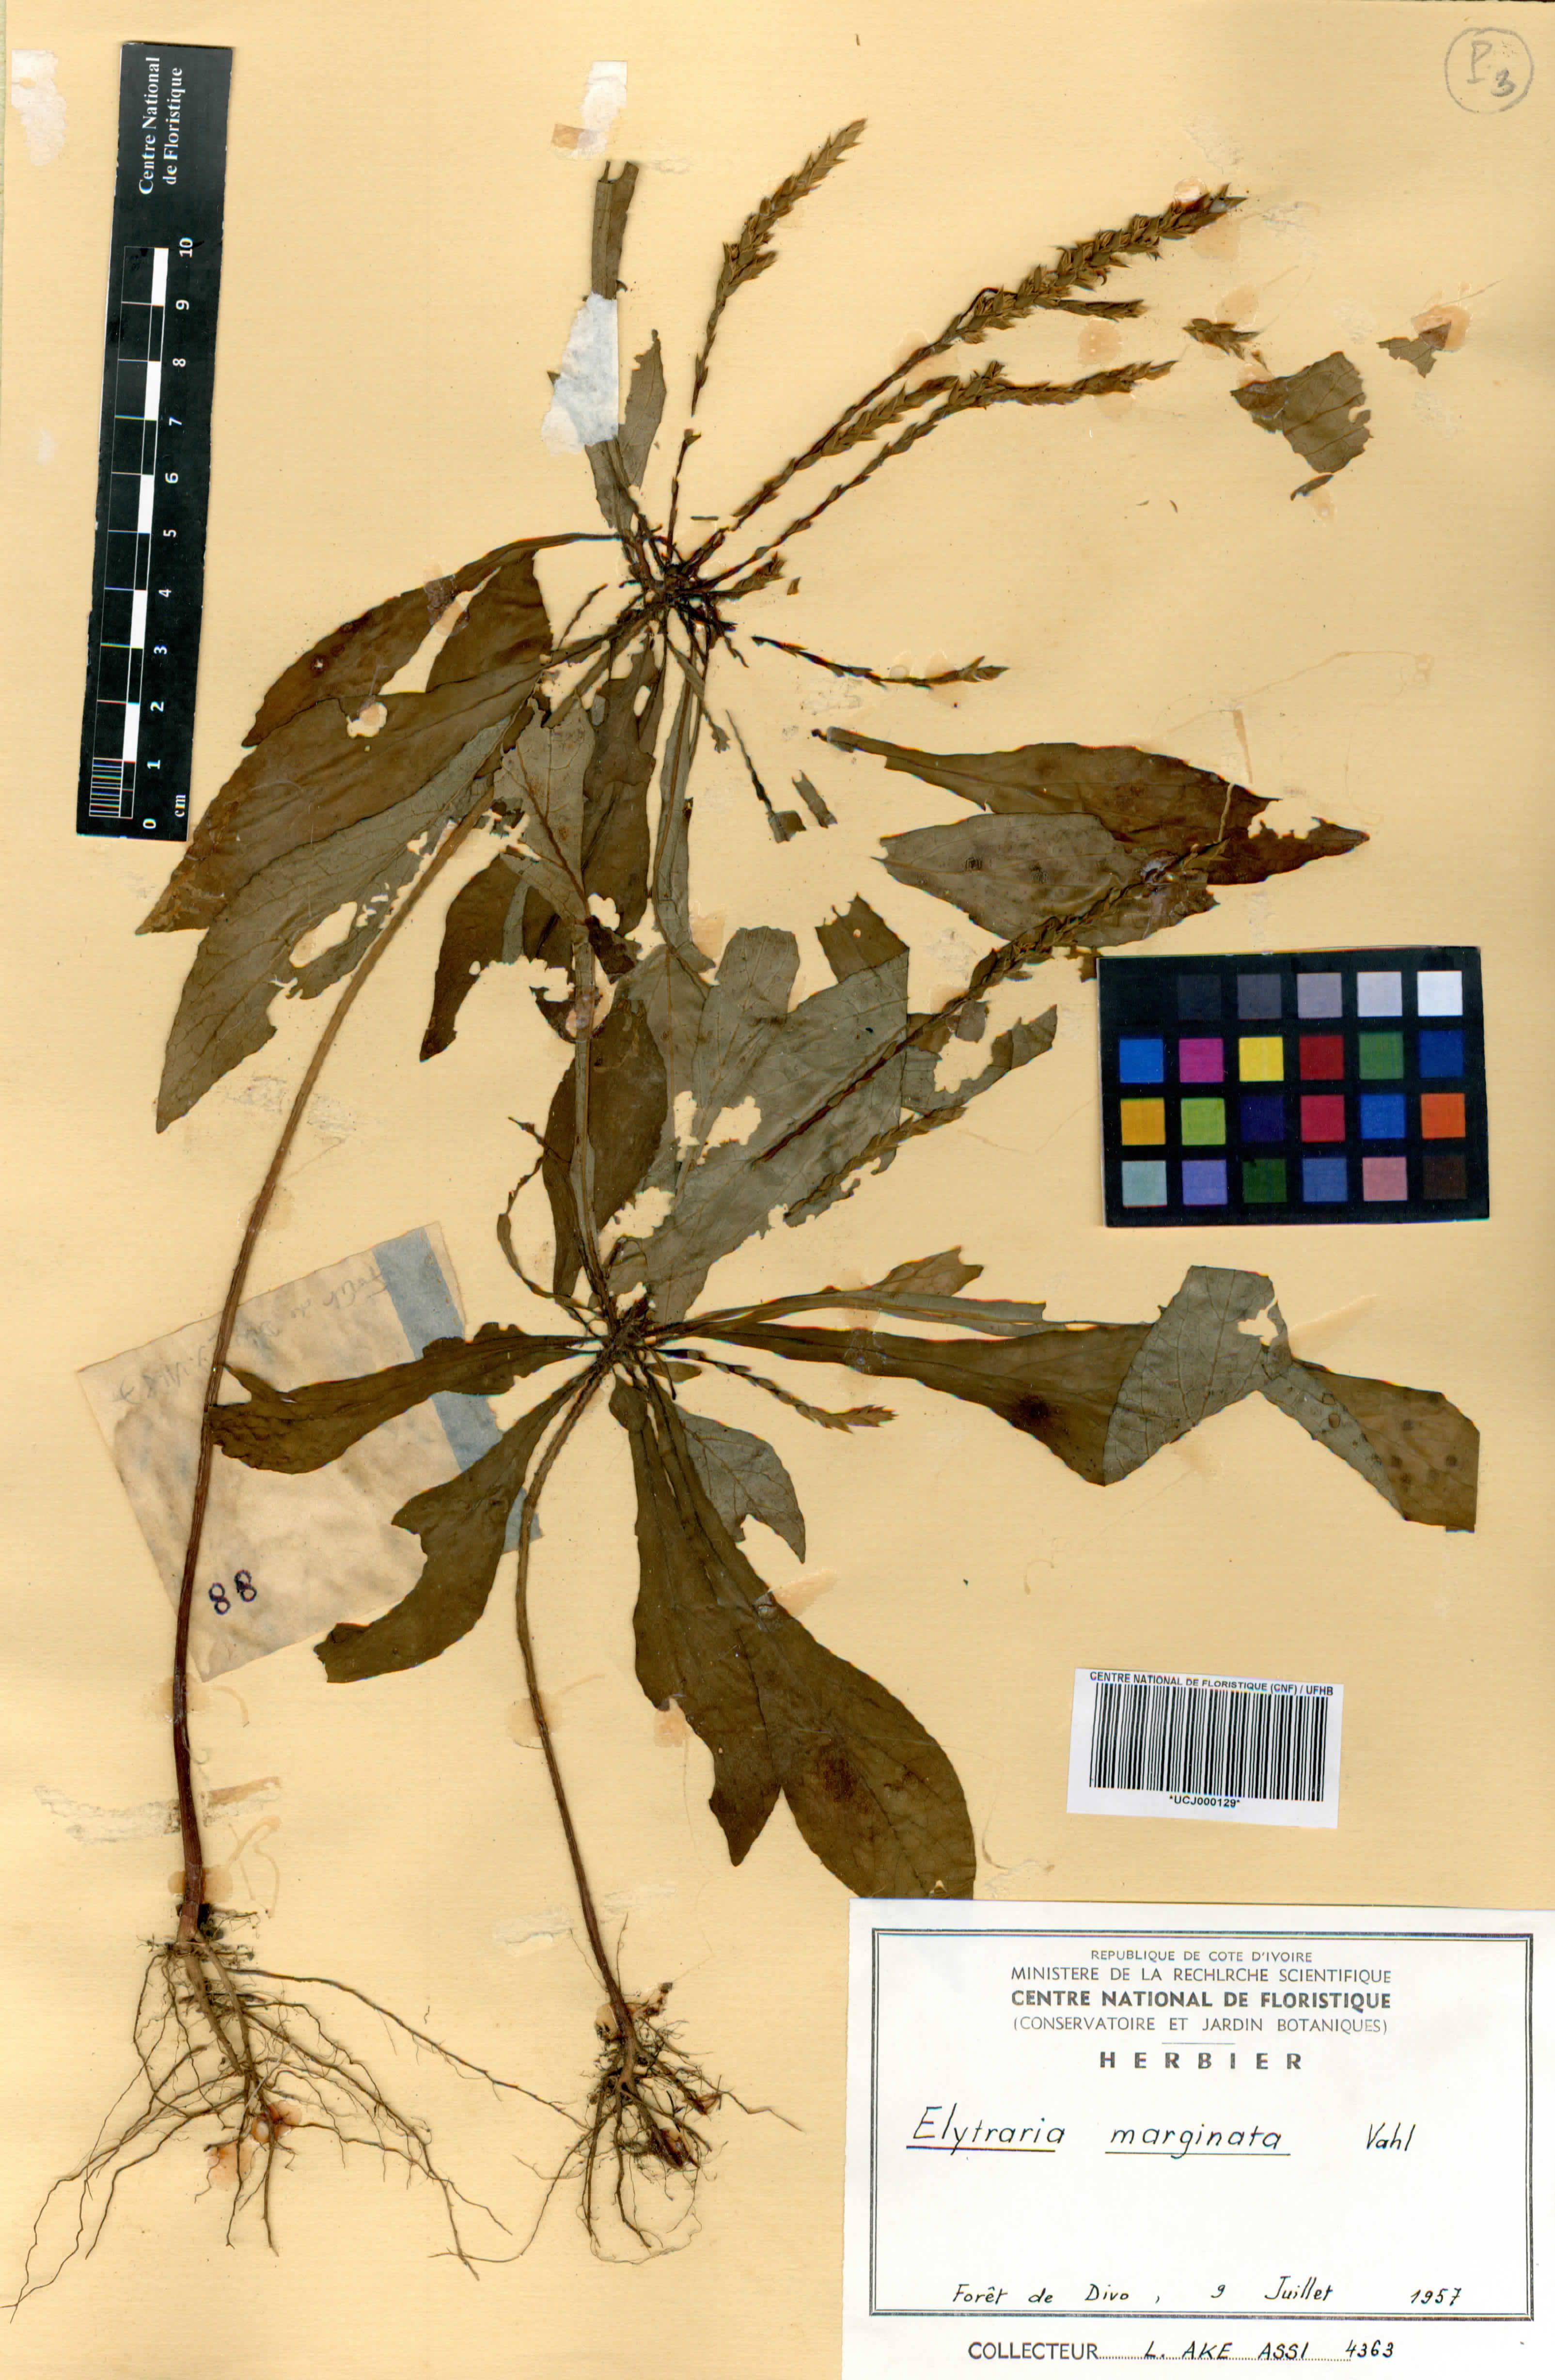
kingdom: Plantae
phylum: Tracheophyta
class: Magnoliopsida
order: Lamiales
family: Acanthaceae
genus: Elytraria
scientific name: Elytraria marginata
